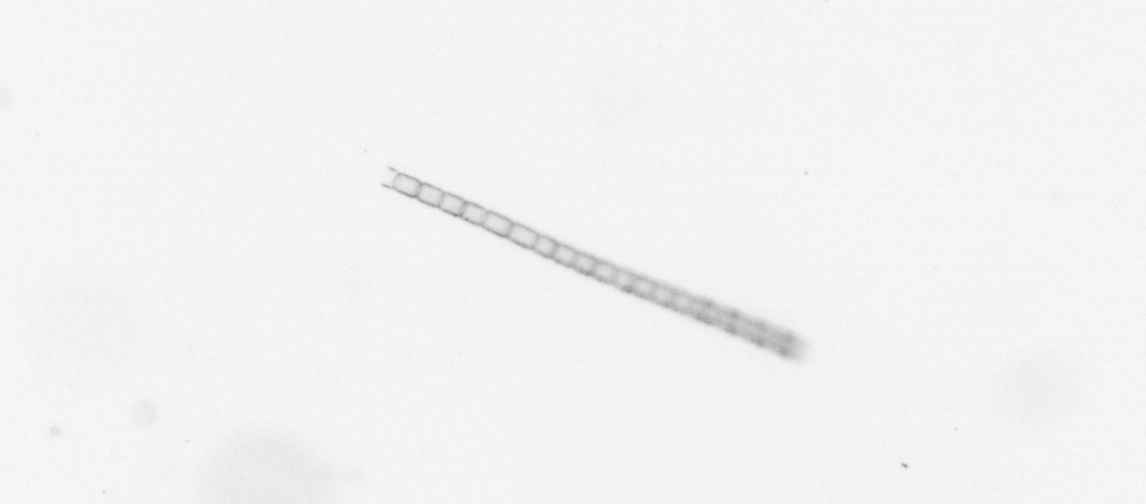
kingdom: Chromista
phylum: Ochrophyta
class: Bacillariophyceae
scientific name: Bacillariophyceae
